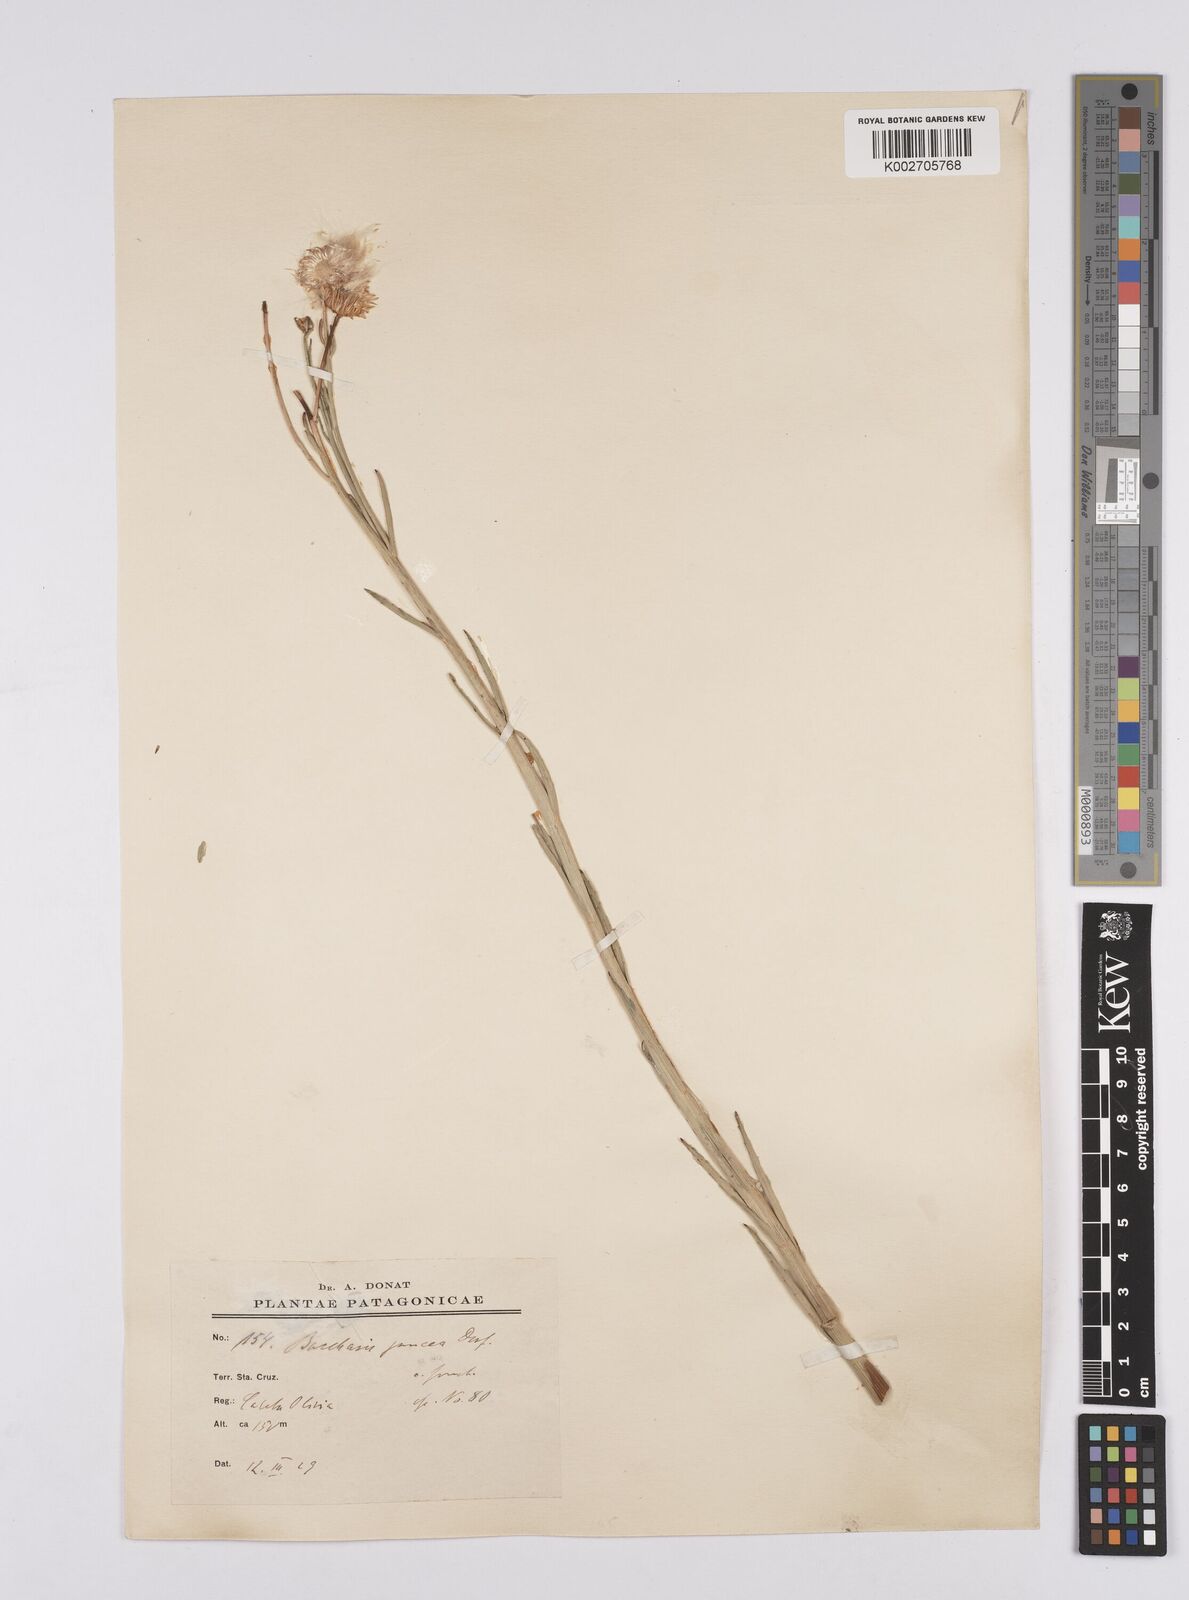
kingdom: Plantae
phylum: Tracheophyta
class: Magnoliopsida
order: Asterales
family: Asteraceae
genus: Baccharis
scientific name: Baccharis juncea
